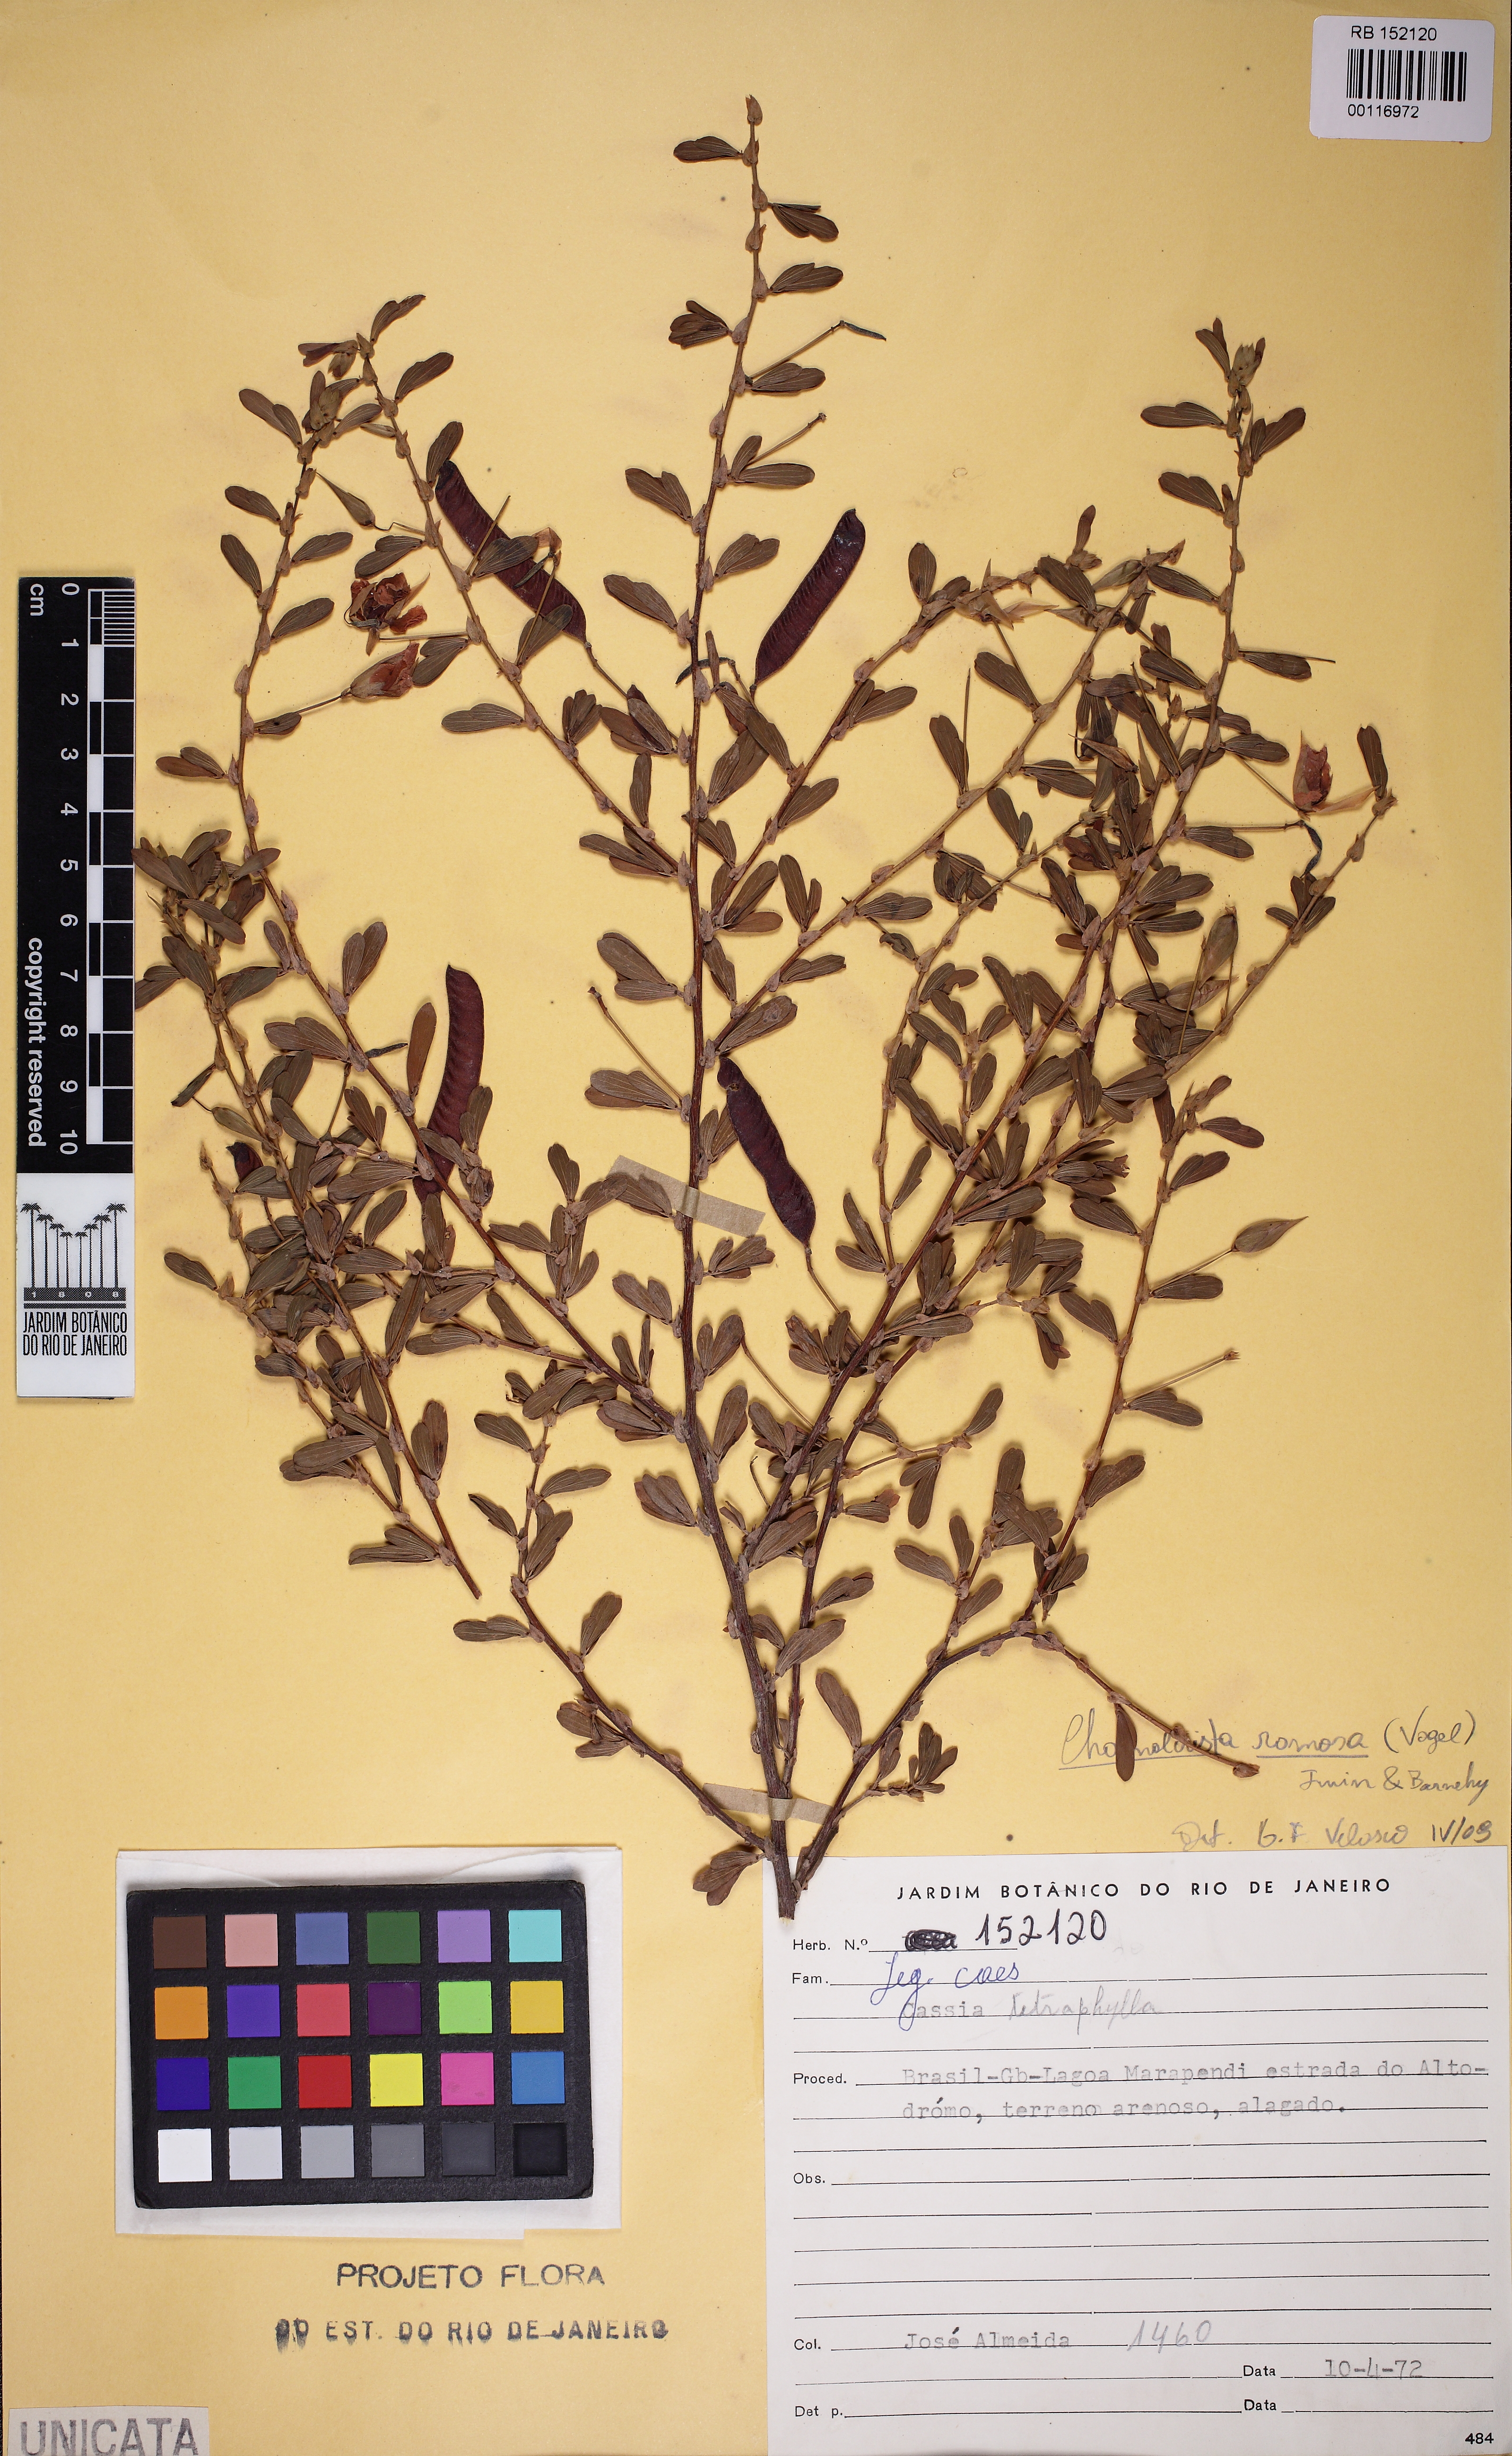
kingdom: Plantae
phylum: Tracheophyta
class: Magnoliopsida
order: Fabales
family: Fabaceae
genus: Chamaecrista
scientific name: Chamaecrista ramosa
